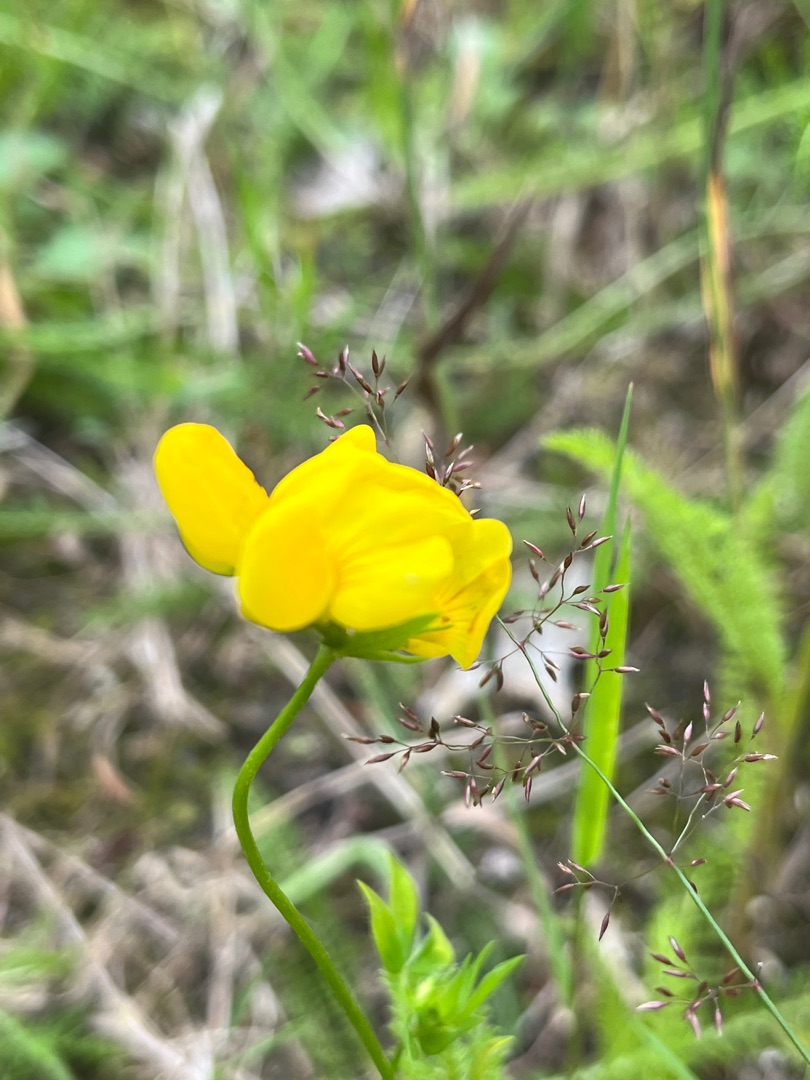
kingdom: Plantae
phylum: Tracheophyta
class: Magnoliopsida
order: Fabales
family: Fabaceae
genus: Lotus
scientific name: Lotus corniculatus
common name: Almindelig kællingetand
